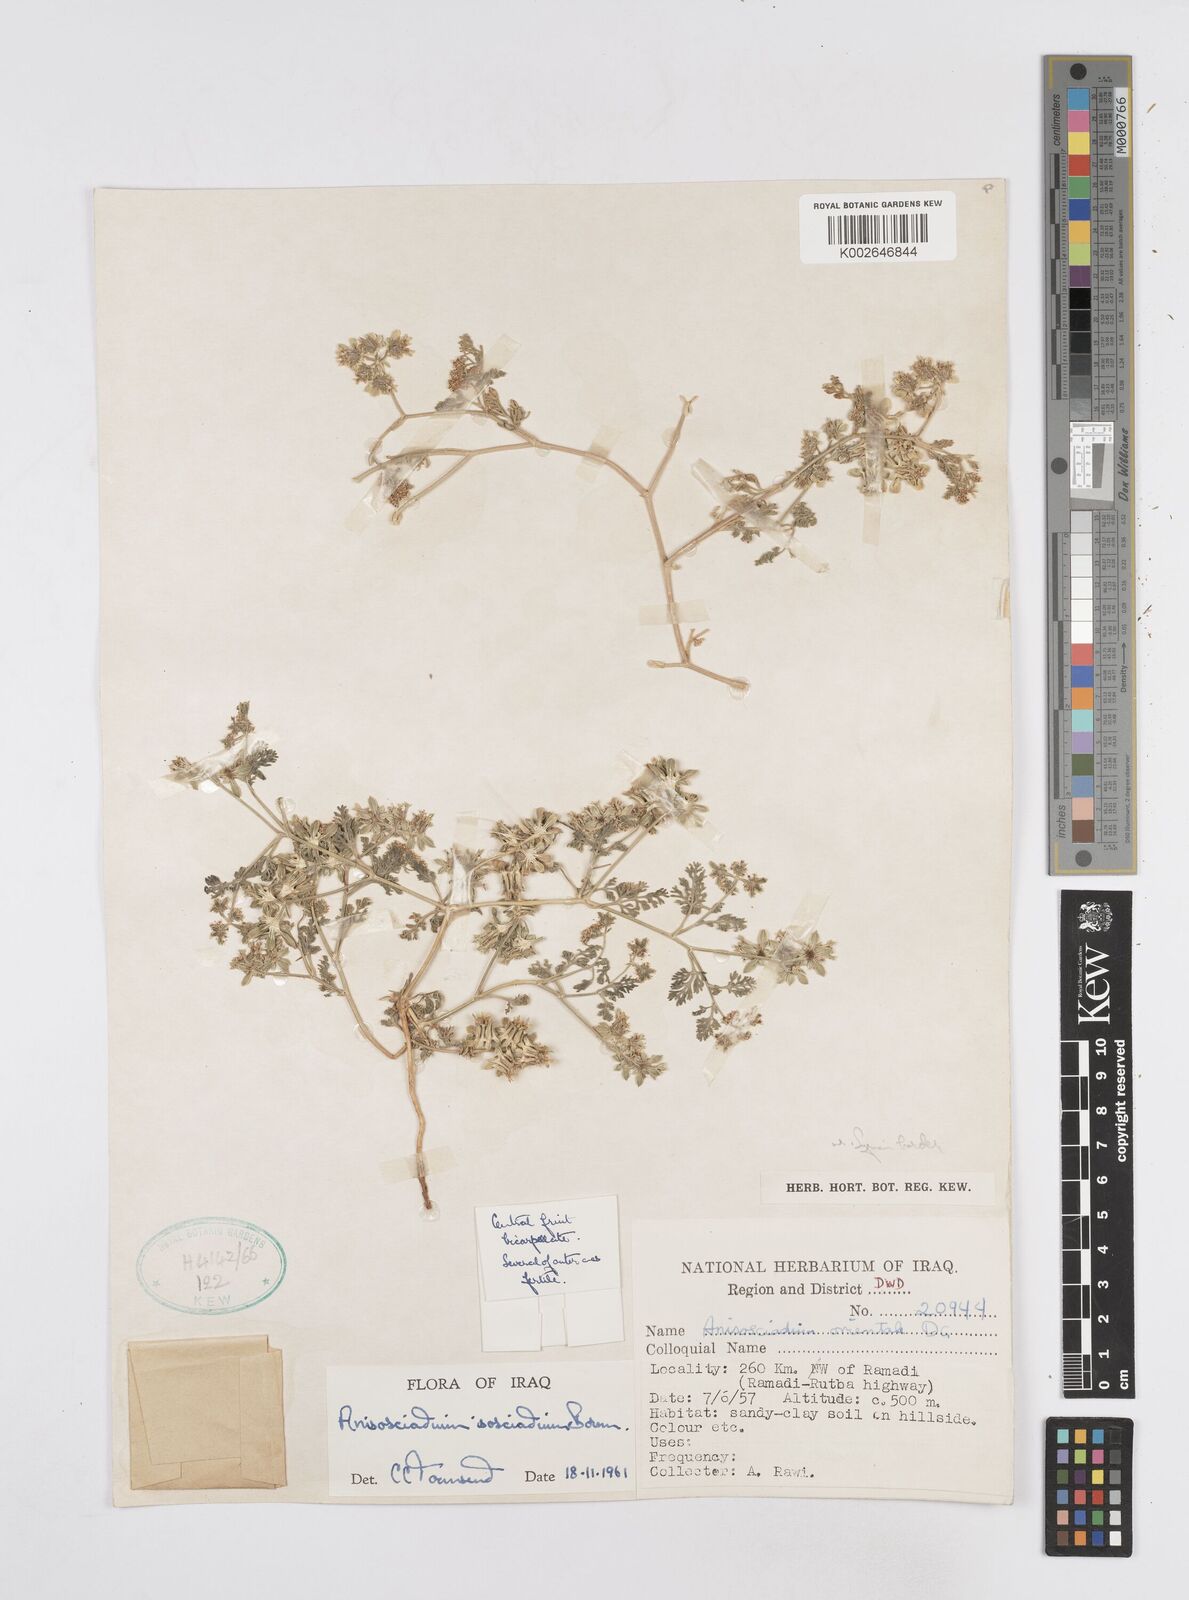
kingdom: Plantae
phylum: Tracheophyta
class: Magnoliopsida
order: Apiales
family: Apiaceae
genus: Anisosciadium
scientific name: Anisosciadium isosciadium
